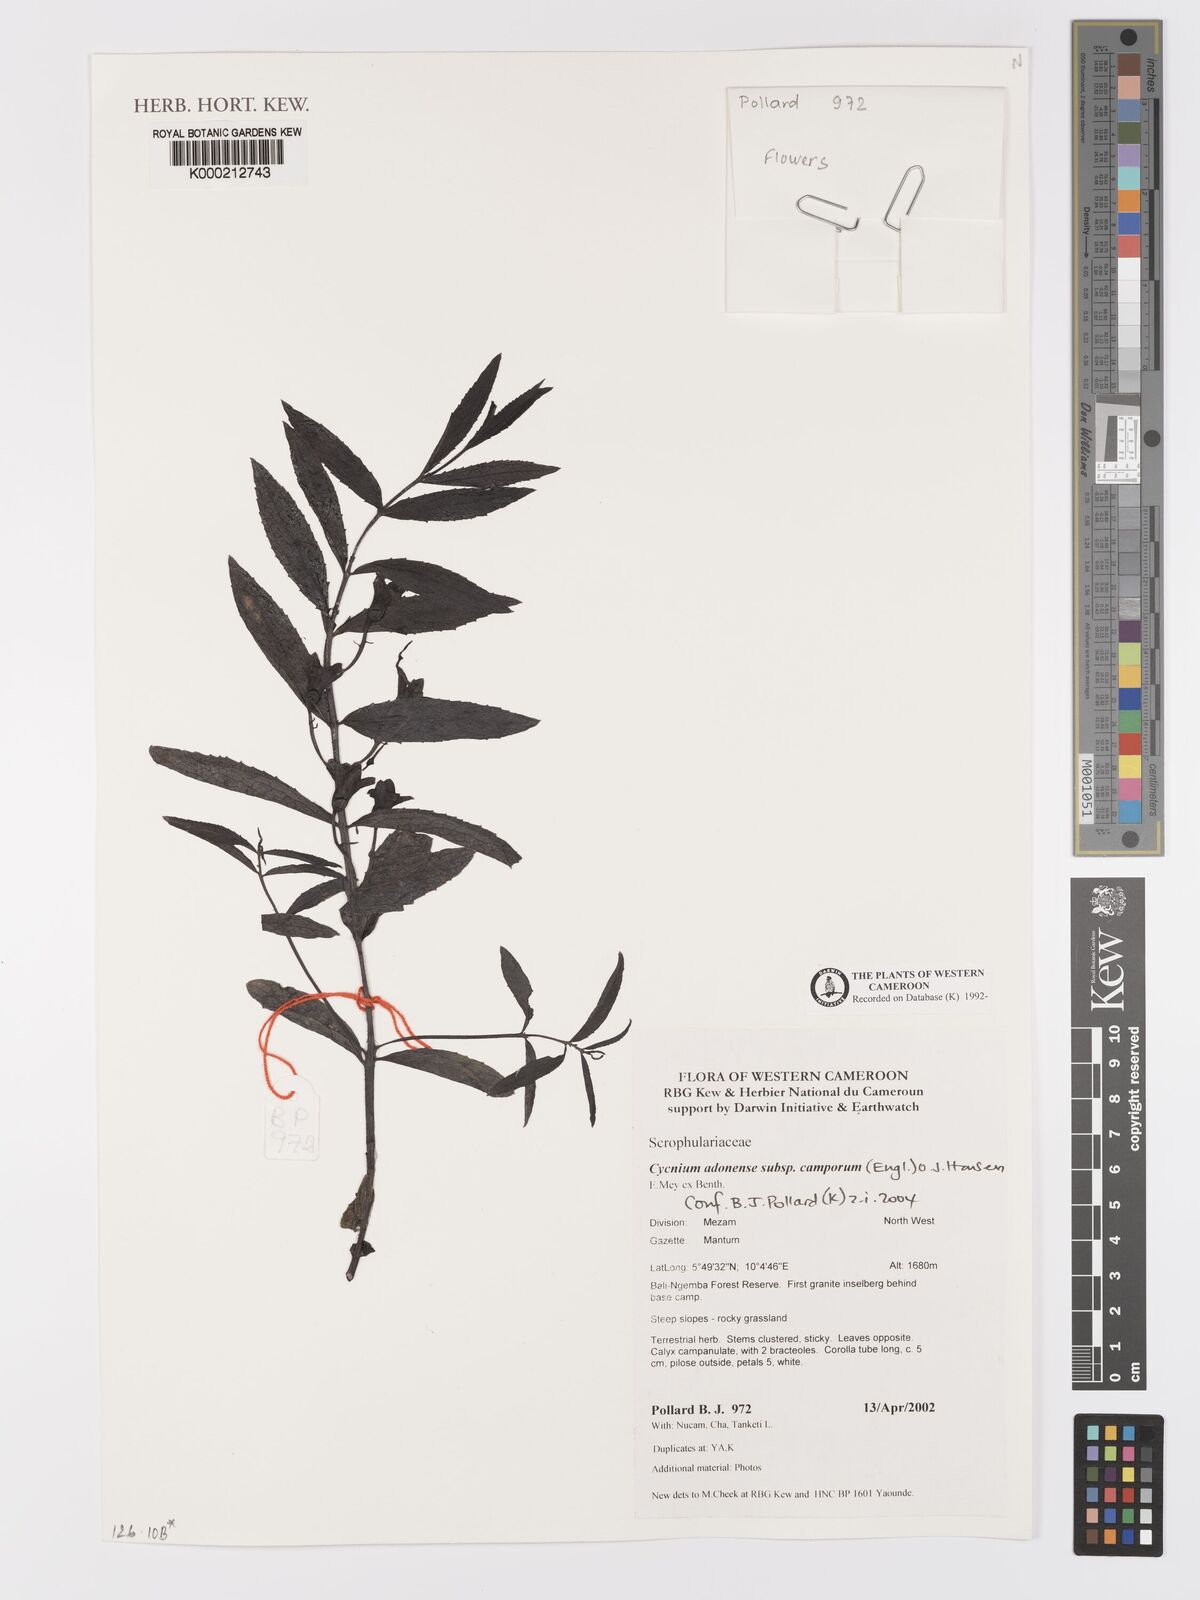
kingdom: Plantae
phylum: Tracheophyta
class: Magnoliopsida
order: Lamiales
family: Orobanchaceae
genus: Cycnium
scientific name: Cycnium adoense
